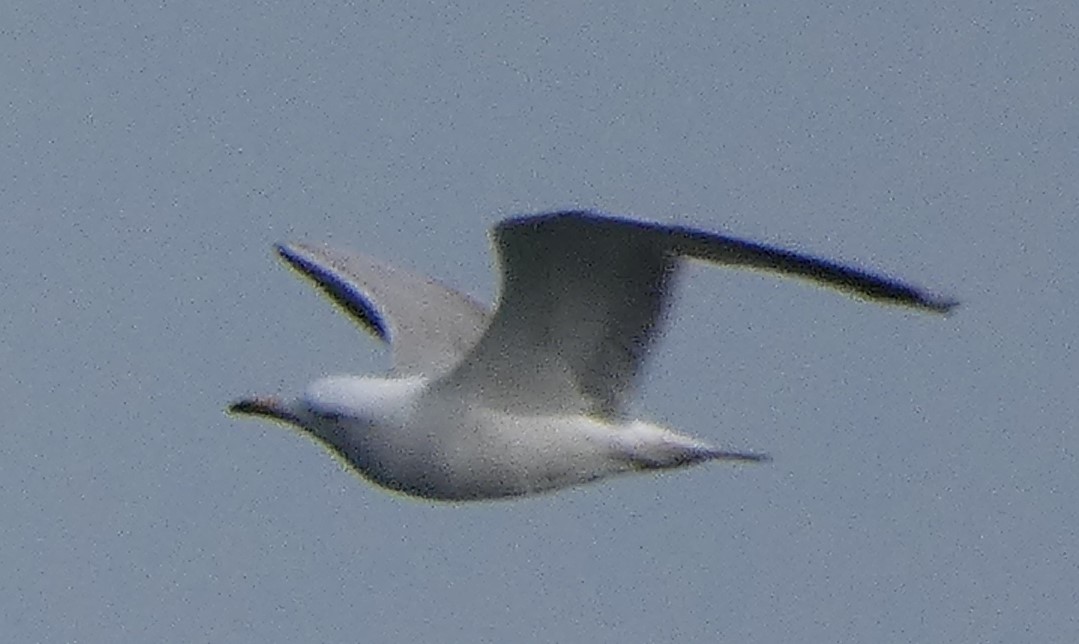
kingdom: Animalia
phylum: Chordata
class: Aves
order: Charadriiformes
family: Laridae
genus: Larus
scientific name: Larus argentatus
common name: Sølvmåge
